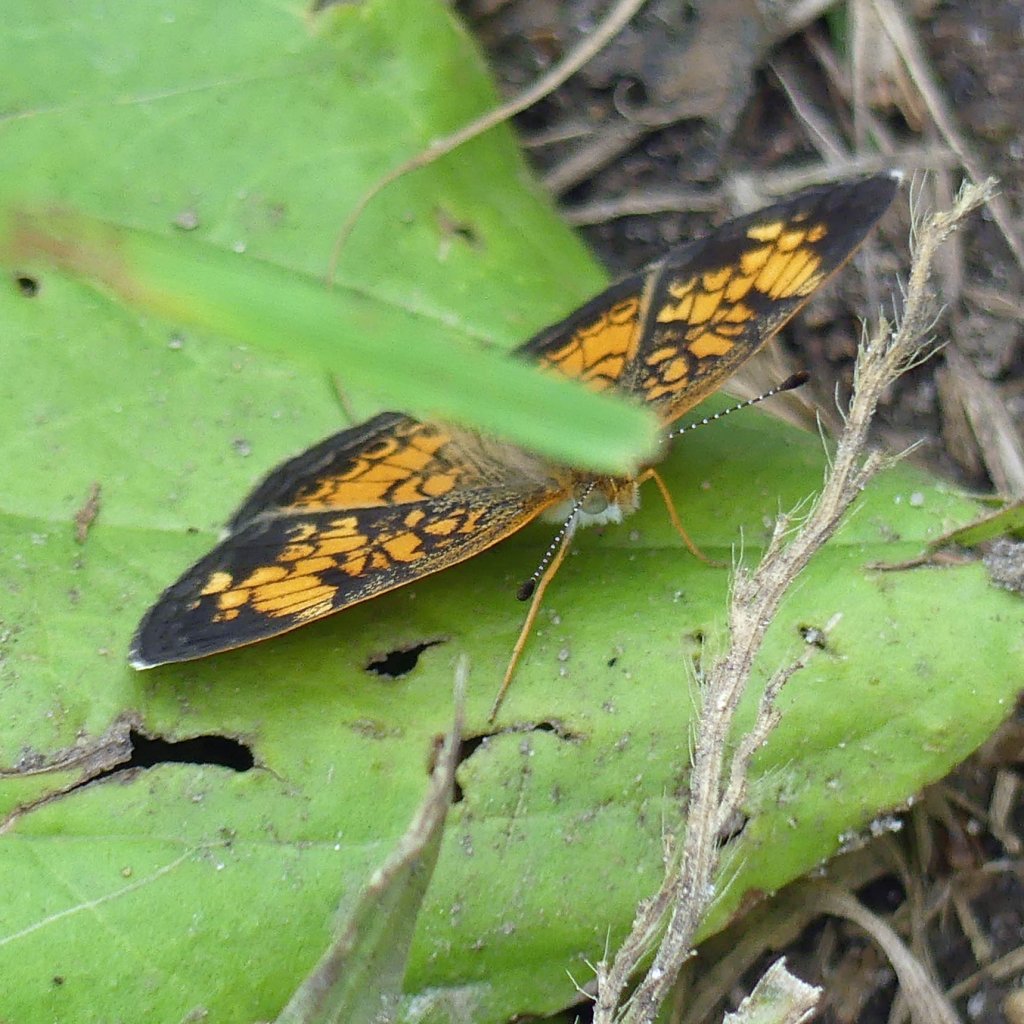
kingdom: Animalia
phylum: Arthropoda
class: Insecta
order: Lepidoptera
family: Nymphalidae
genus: Phyciodes
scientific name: Phyciodes tharos
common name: Pearl Crescent
